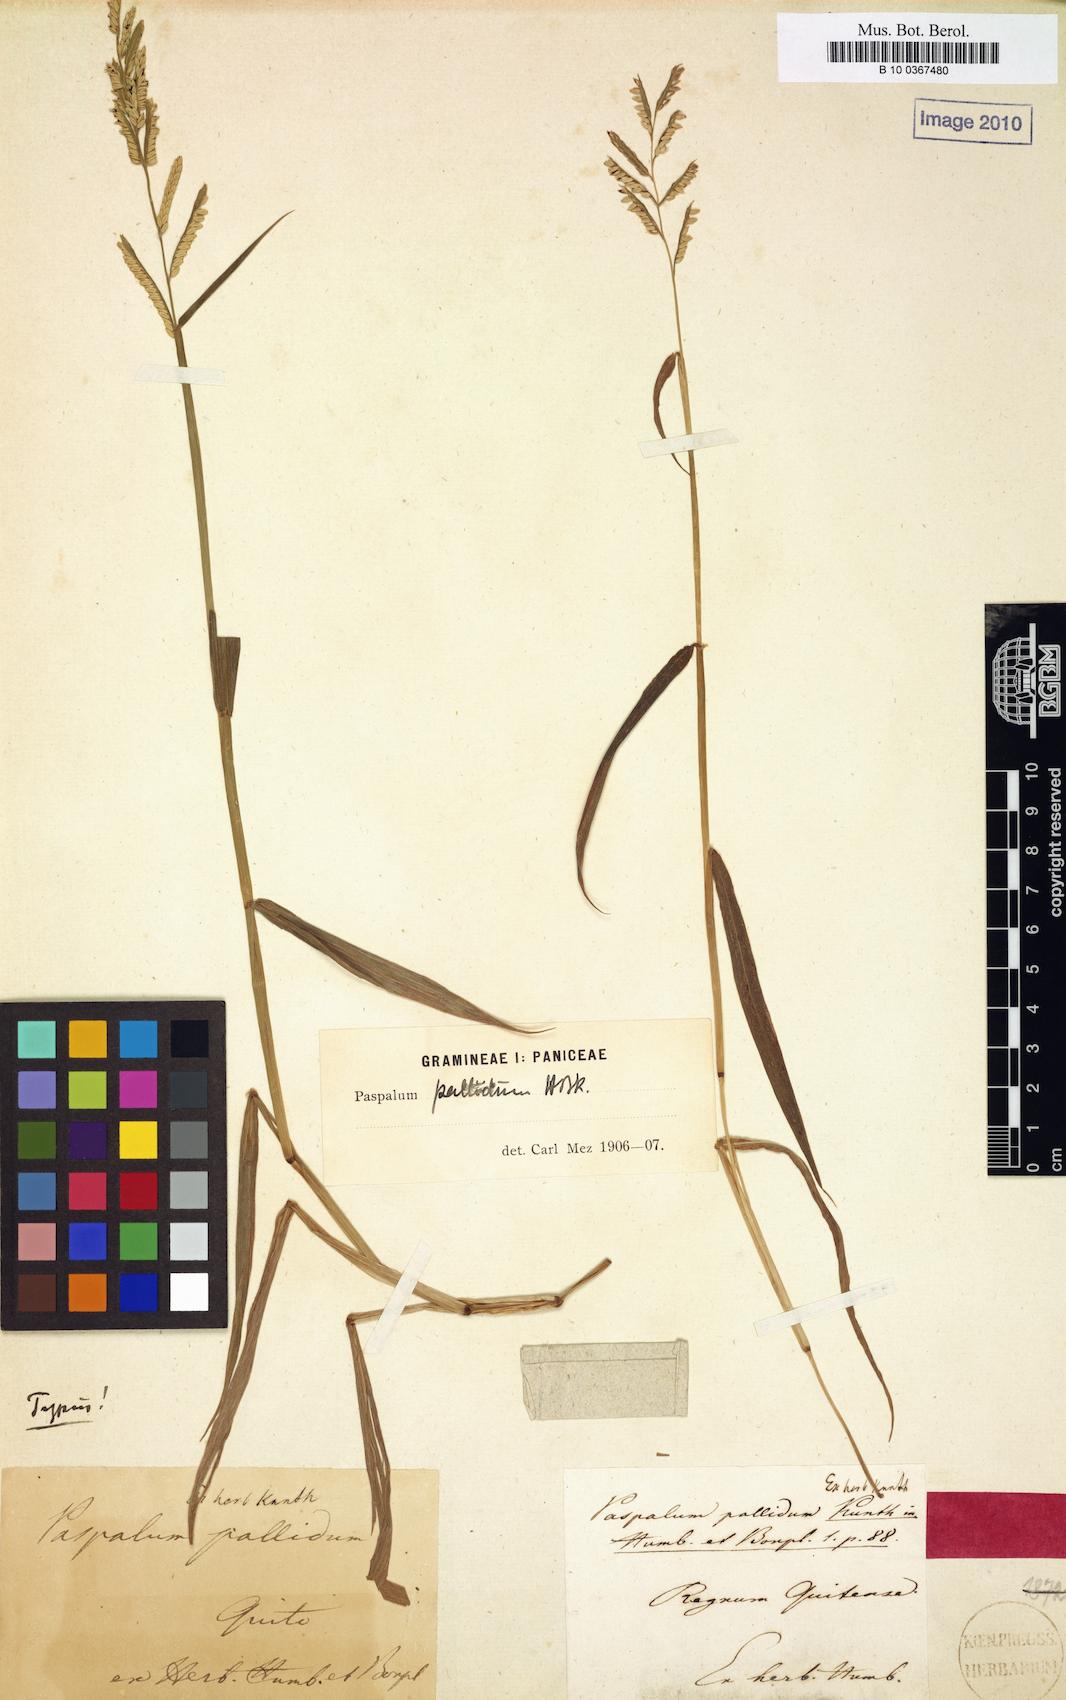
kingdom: Plantae
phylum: Tracheophyta
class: Liliopsida
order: Poales
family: Poaceae
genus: Paspalum
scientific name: Paspalum pallidum
